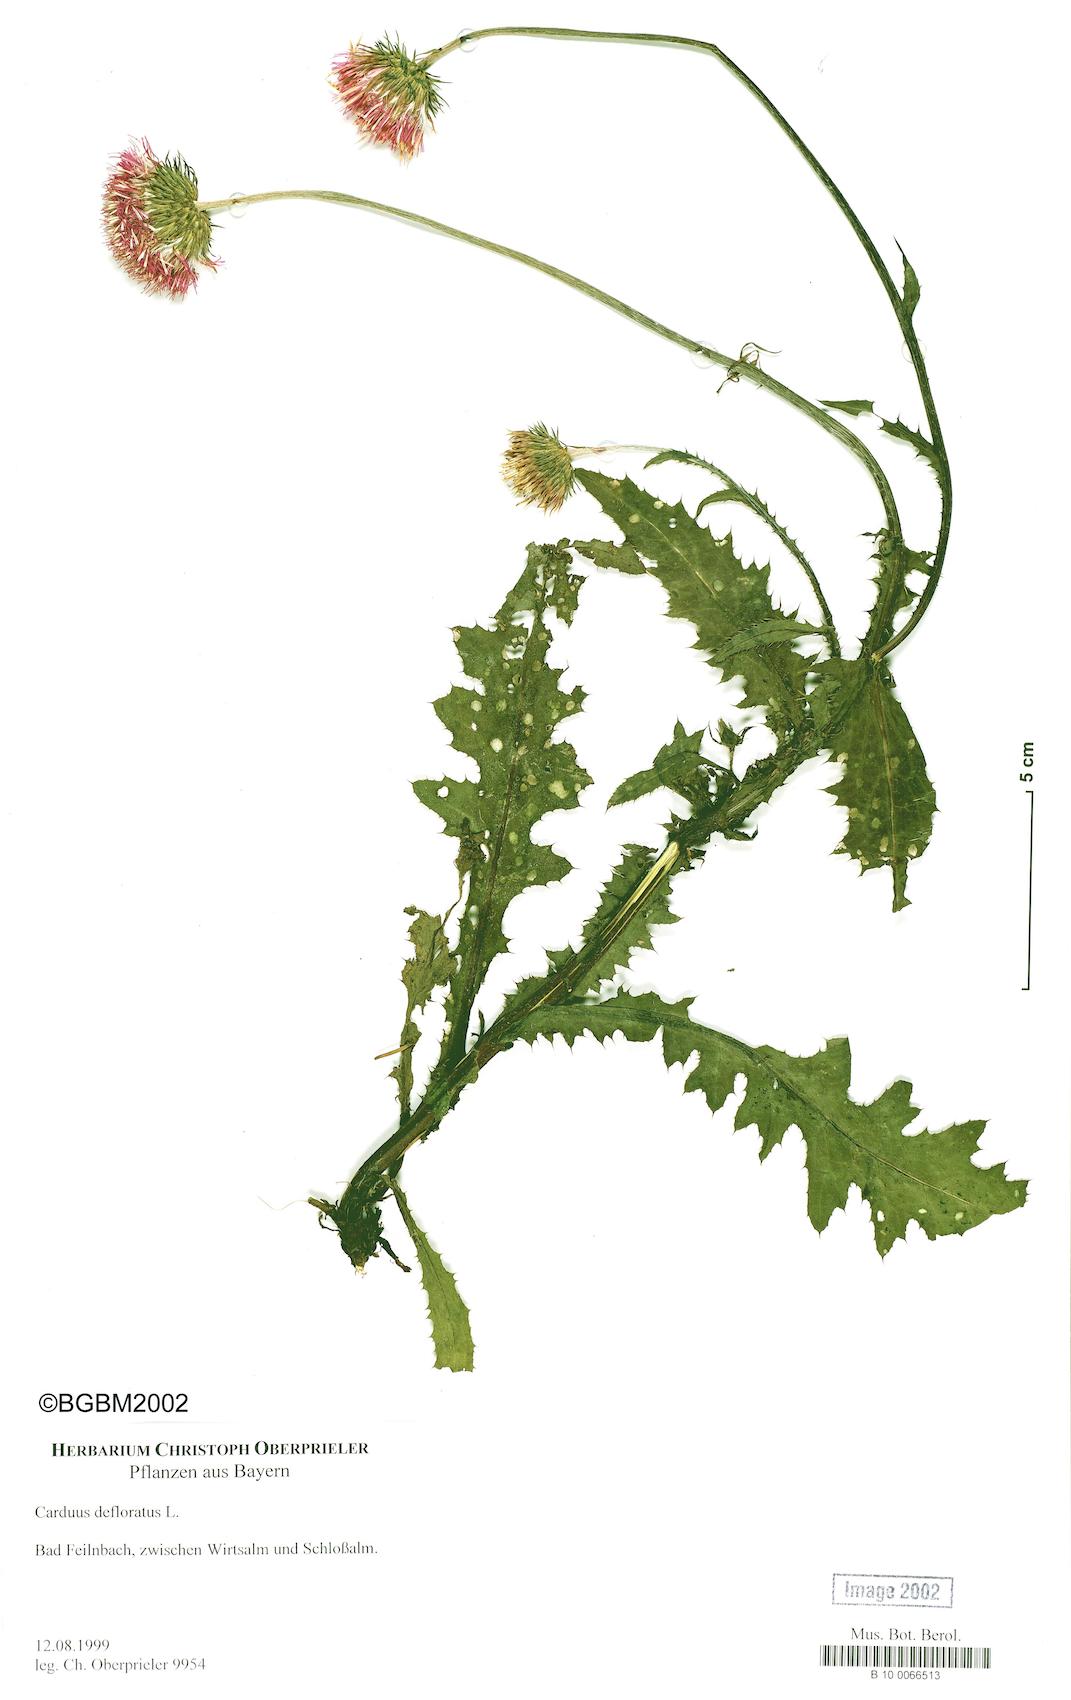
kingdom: Plantae
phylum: Tracheophyta
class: Magnoliopsida
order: Asterales
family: Asteraceae
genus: Carduus
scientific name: Carduus defloratus
